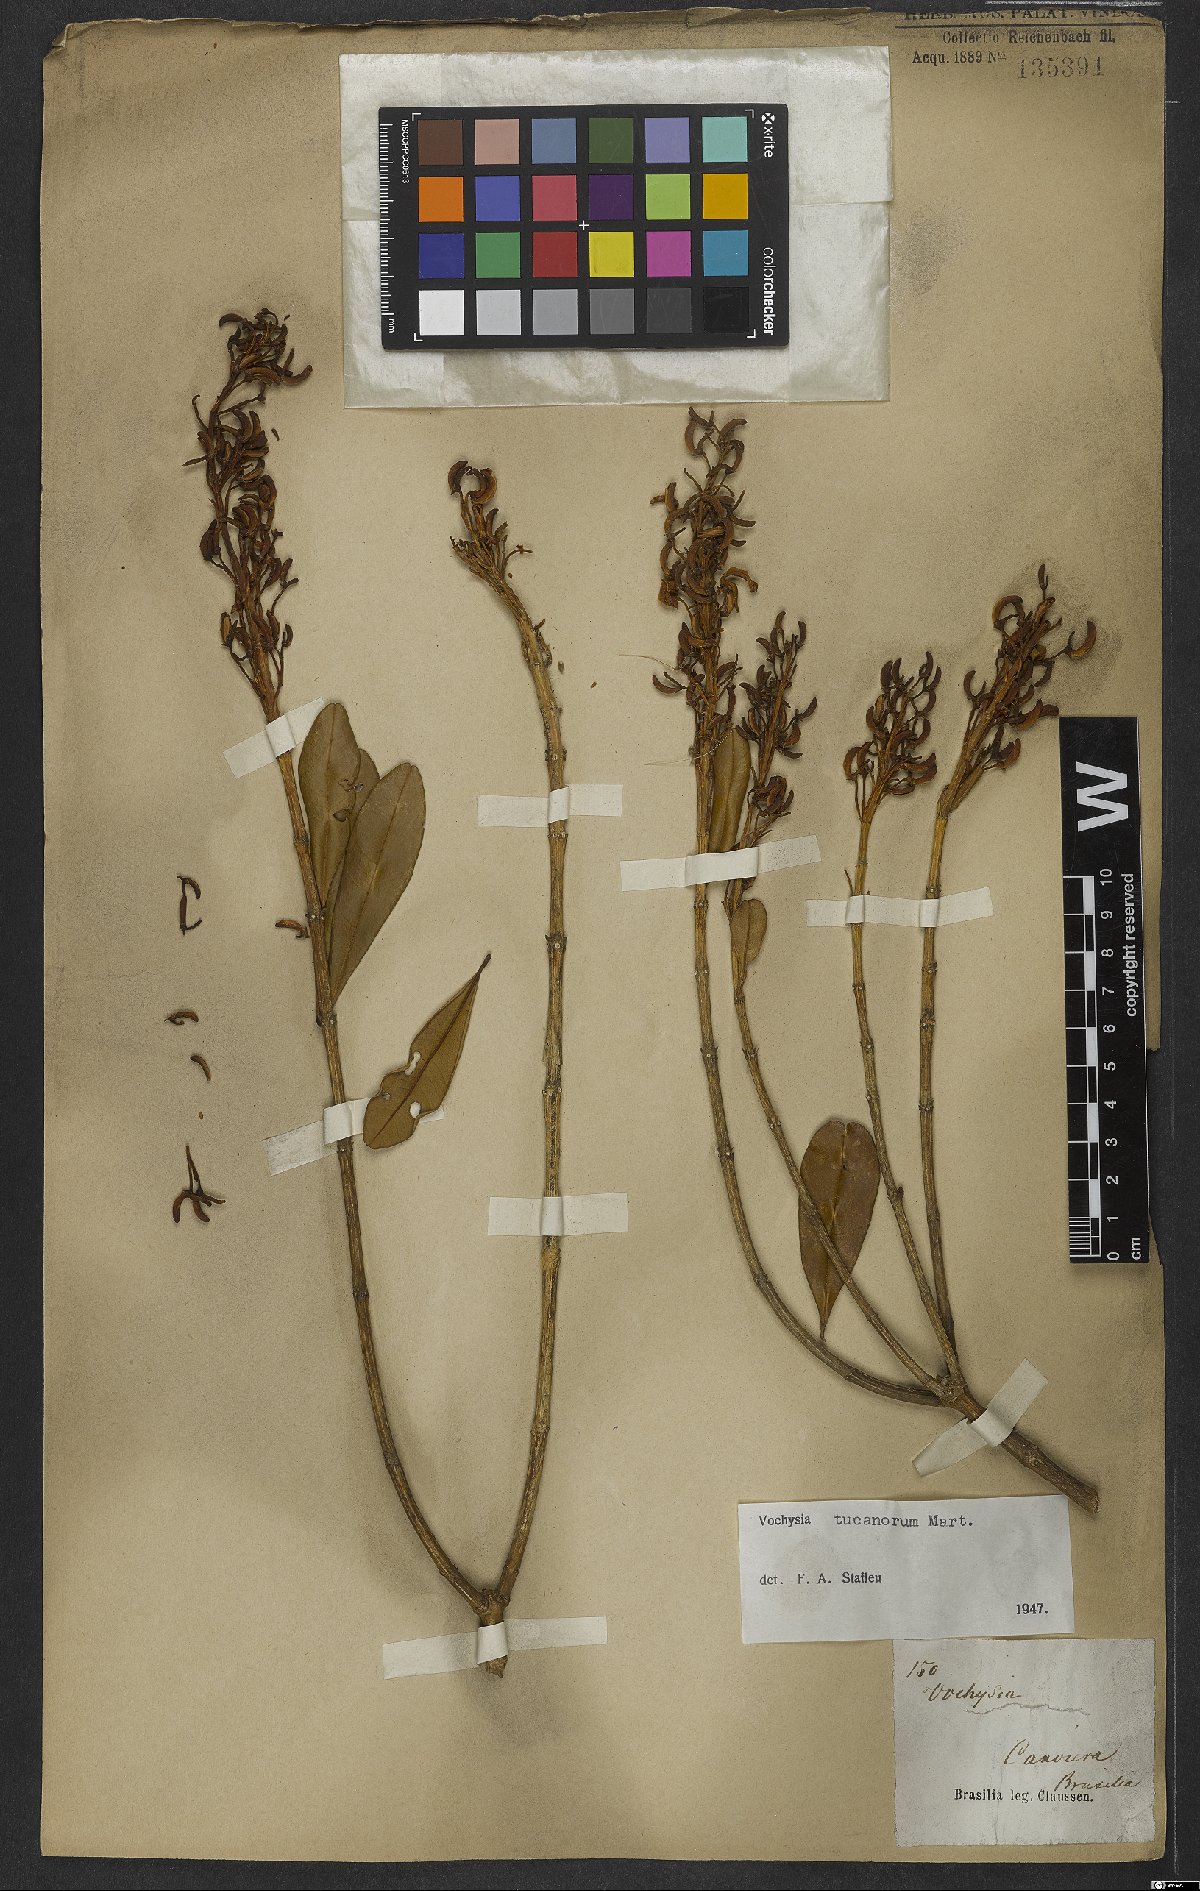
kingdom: Plantae
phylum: Tracheophyta
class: Magnoliopsida
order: Myrtales
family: Vochysiaceae
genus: Vochysia
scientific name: Vochysia tucanorum
